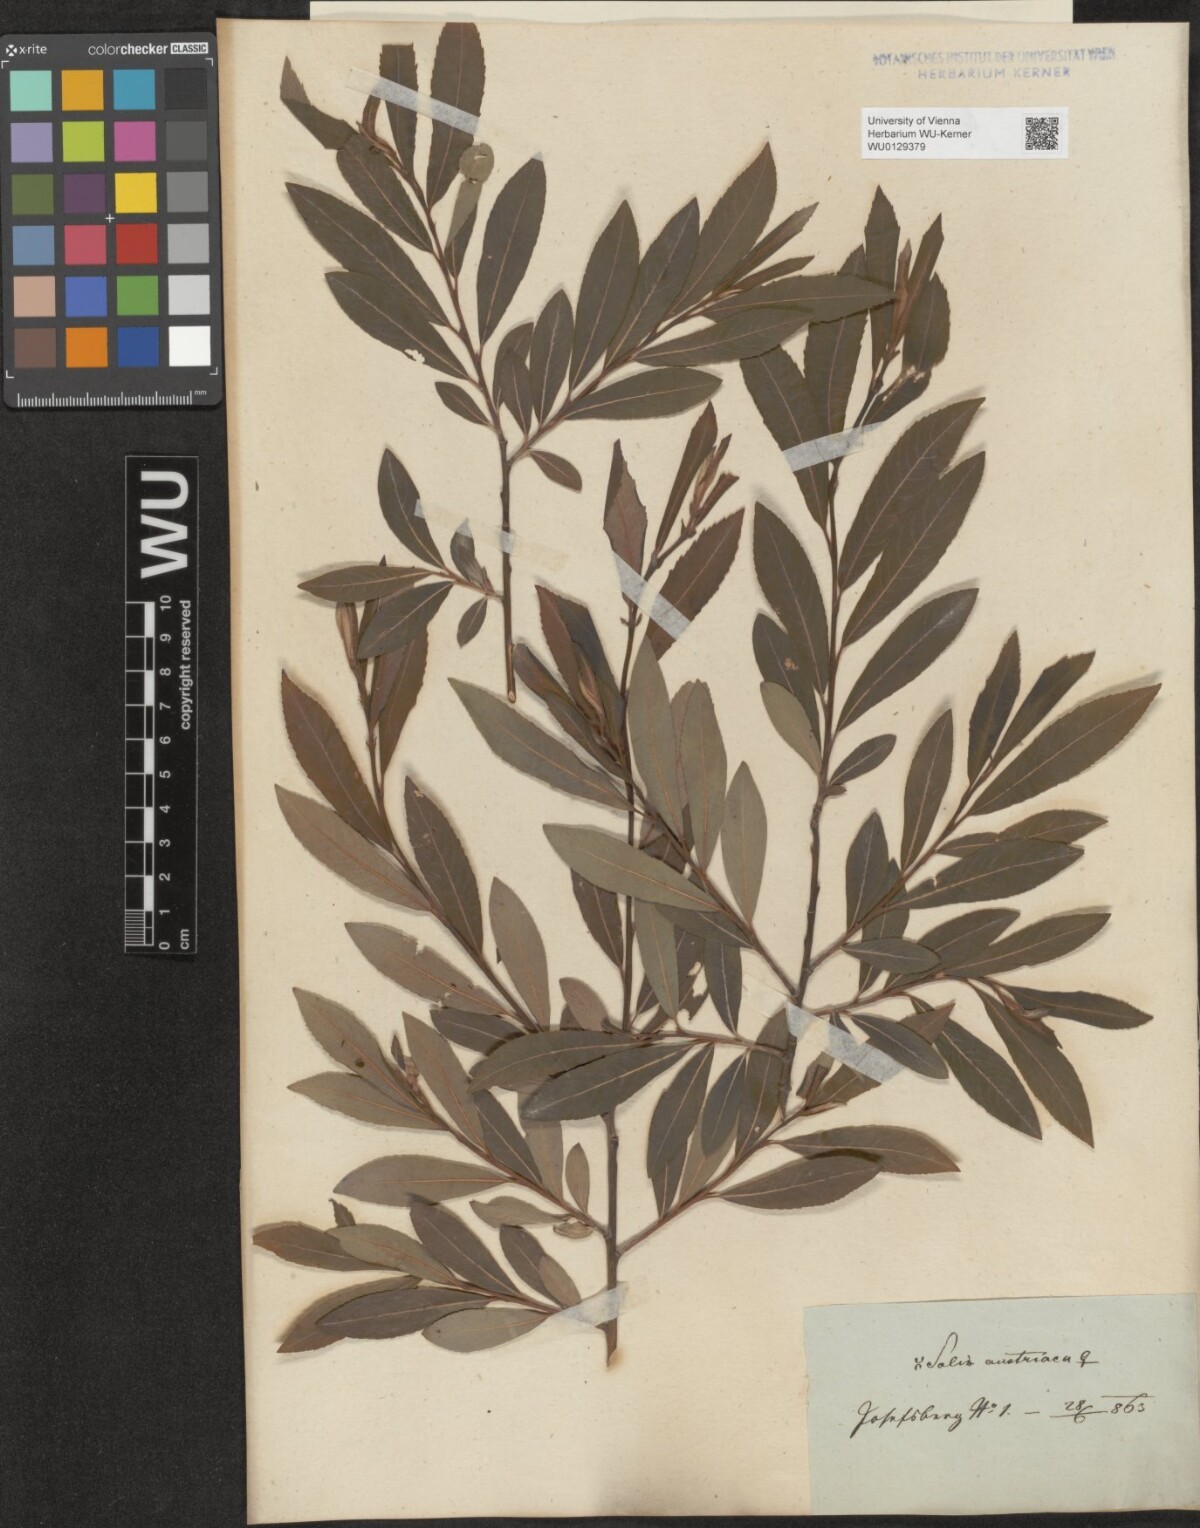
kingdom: Plantae
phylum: Tracheophyta
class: Magnoliopsida
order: Malpighiales
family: Salicaceae
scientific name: Salicaceae
